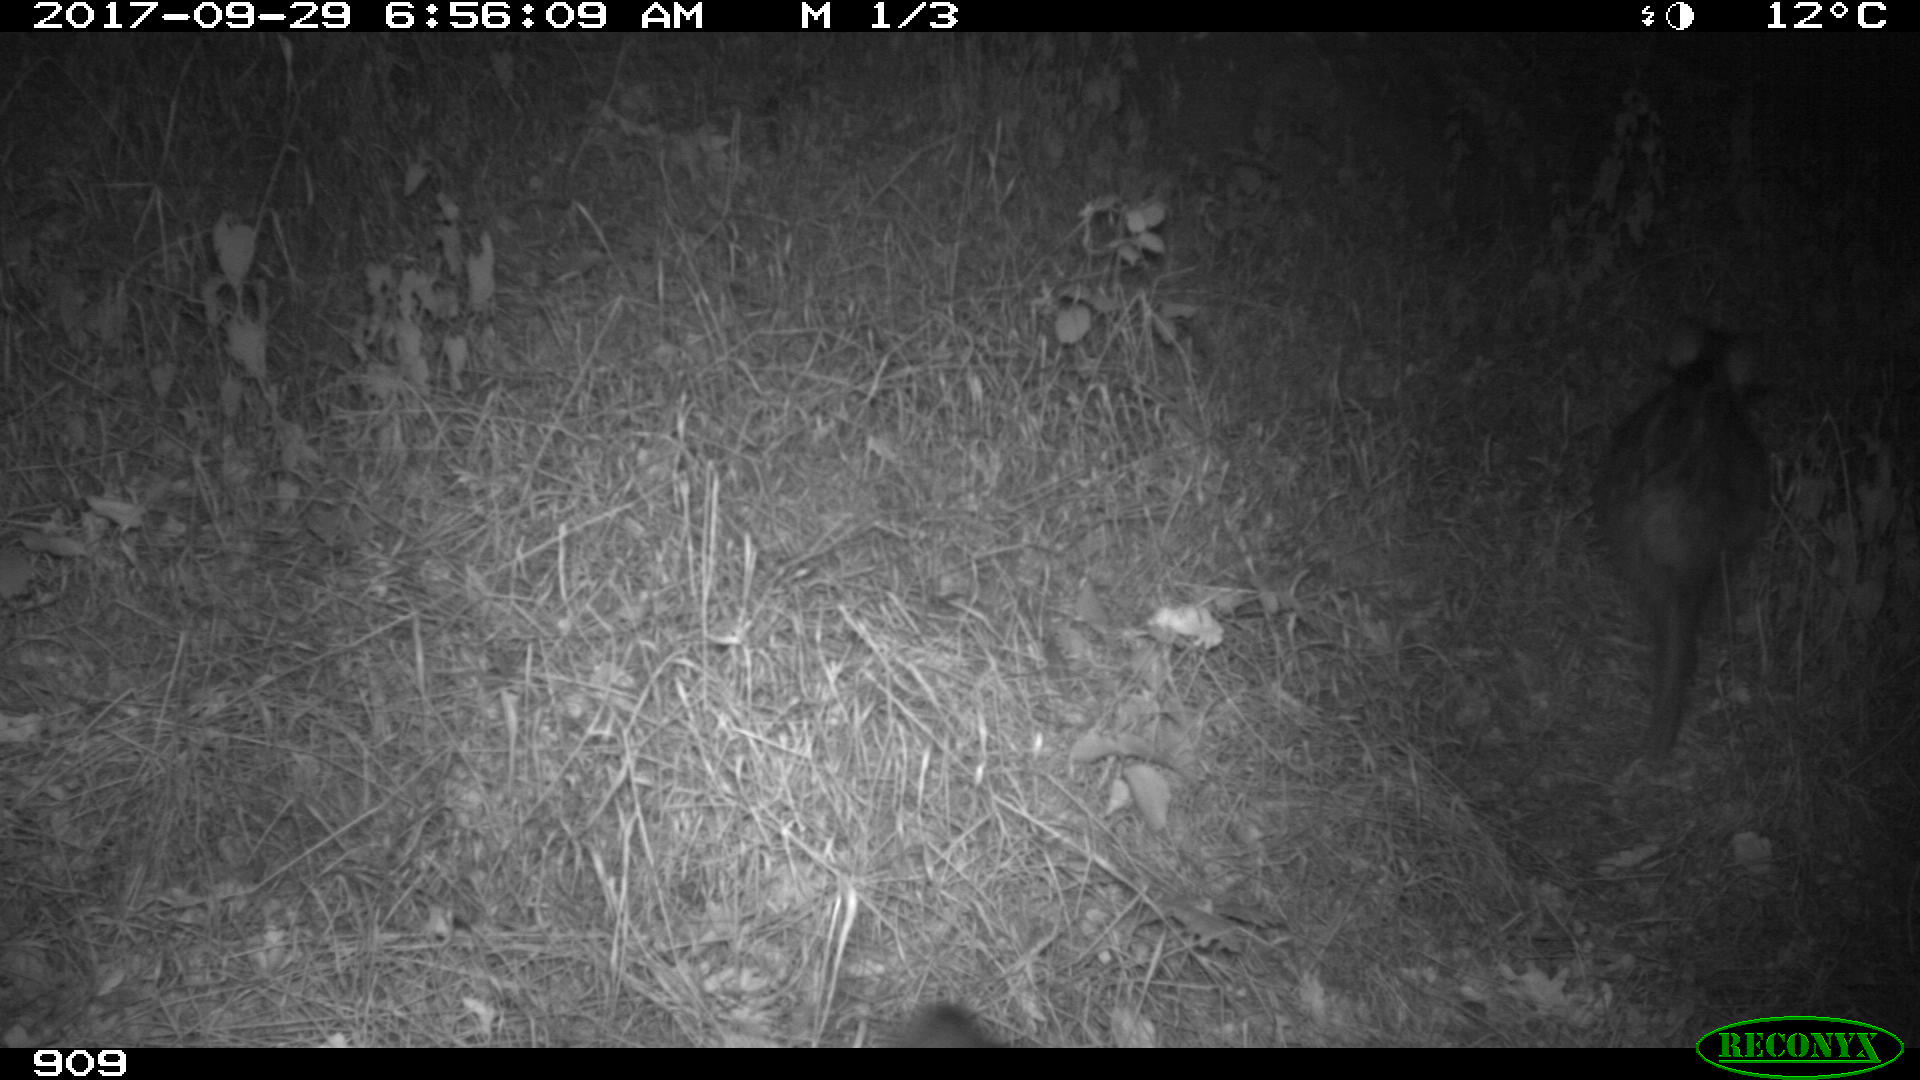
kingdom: Animalia
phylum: Chordata
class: Mammalia
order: Artiodactyla
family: Suidae
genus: Sus
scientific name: Sus scrofa
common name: Wild boar
